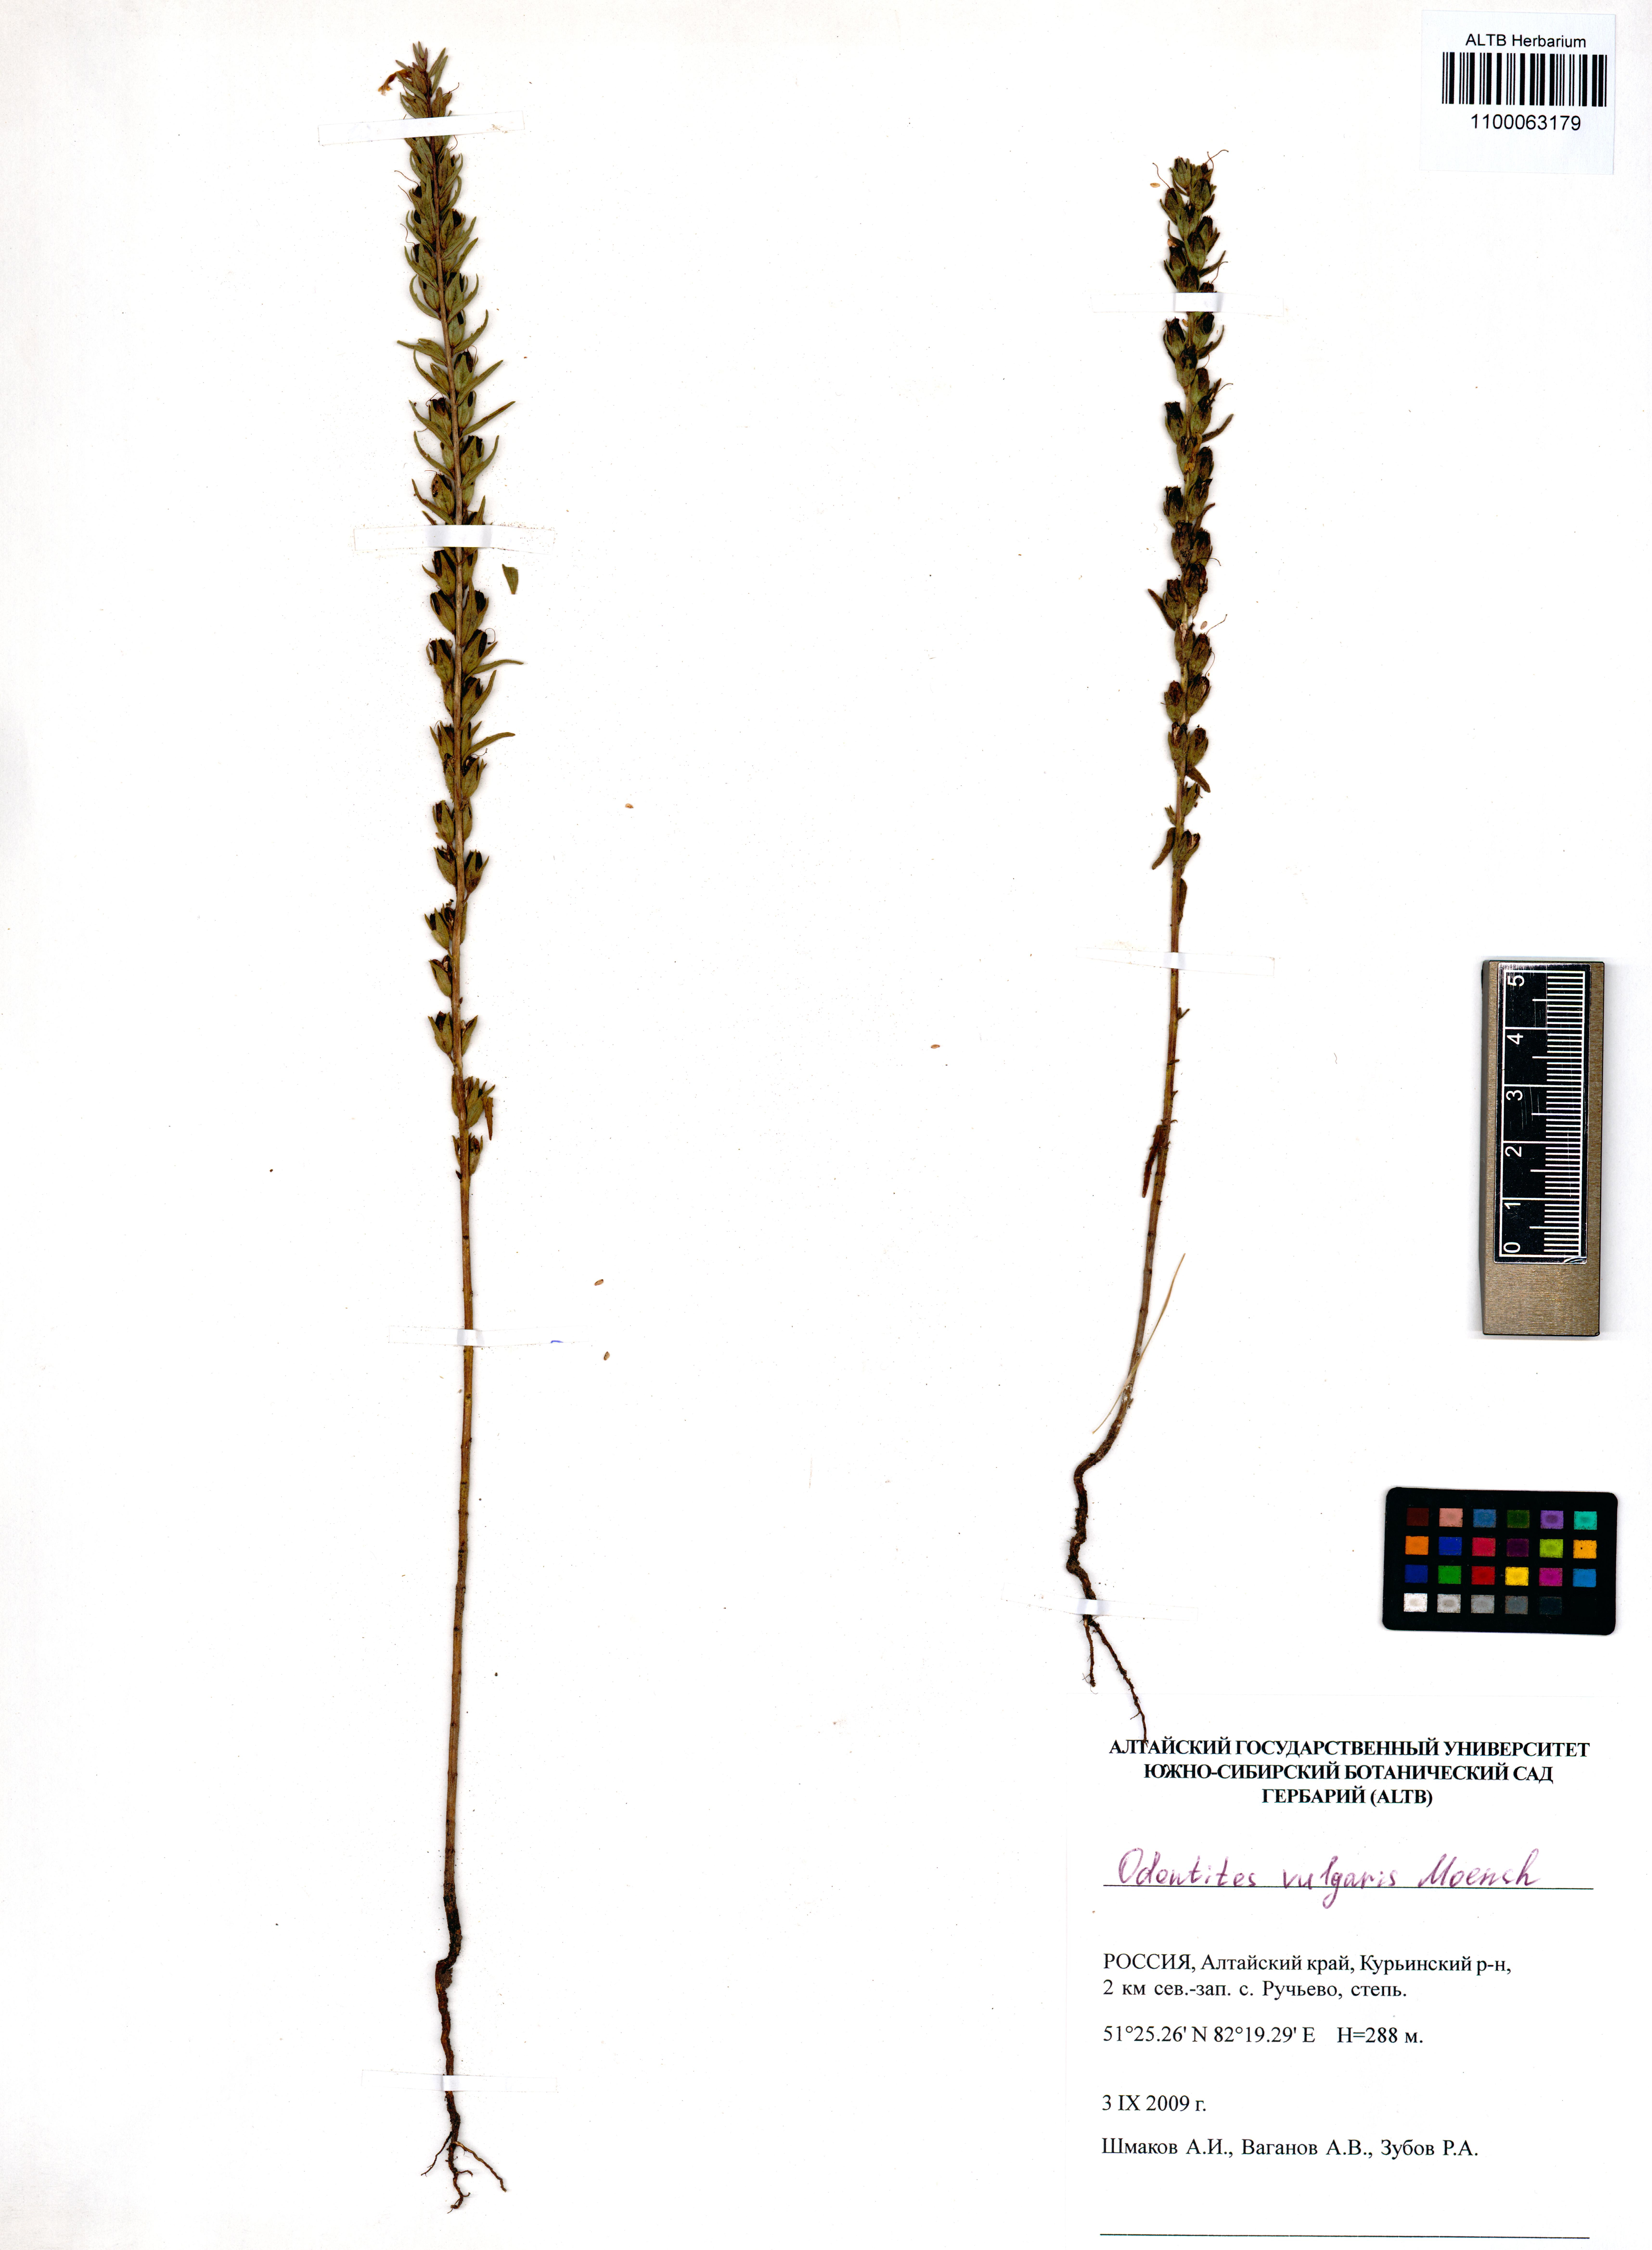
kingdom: Plantae
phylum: Tracheophyta
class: Magnoliopsida
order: Lamiales
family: Orobanchaceae
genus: Odontites
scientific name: Odontites vulgaris
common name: Broomrape
